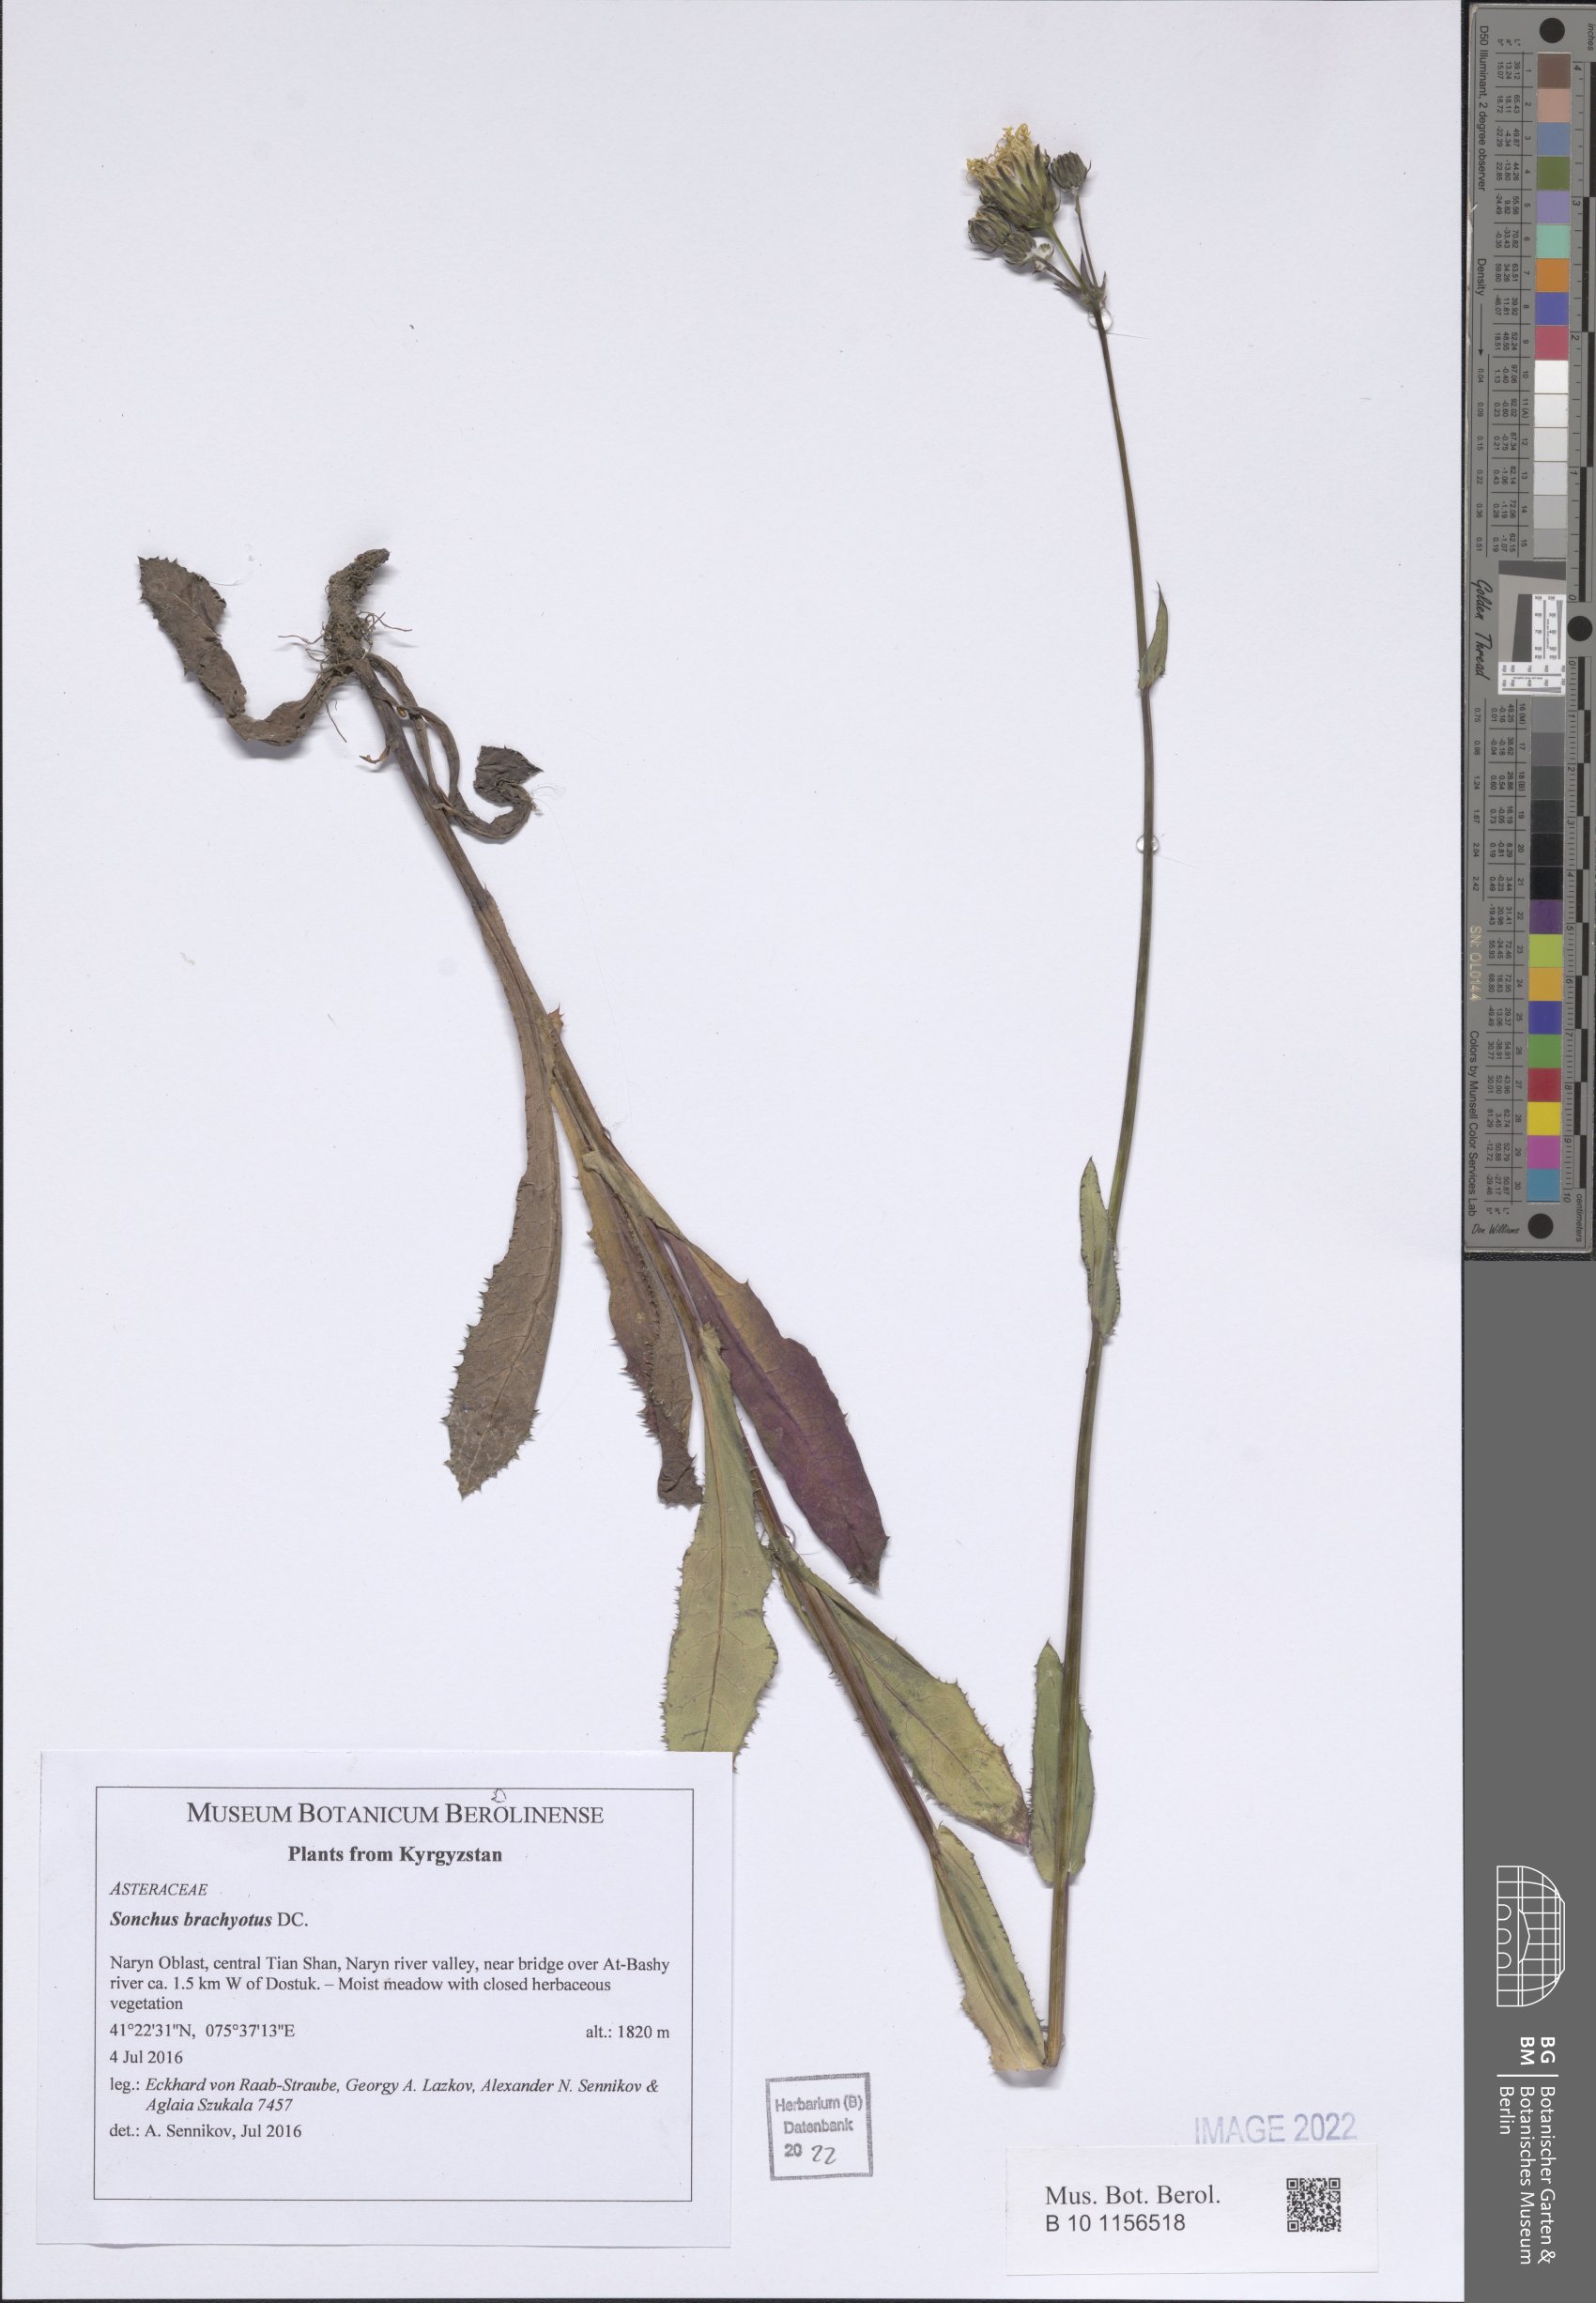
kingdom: Plantae
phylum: Tracheophyta
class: Magnoliopsida
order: Asterales
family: Asteraceae
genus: Sonchus
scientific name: Sonchus brachyotus
